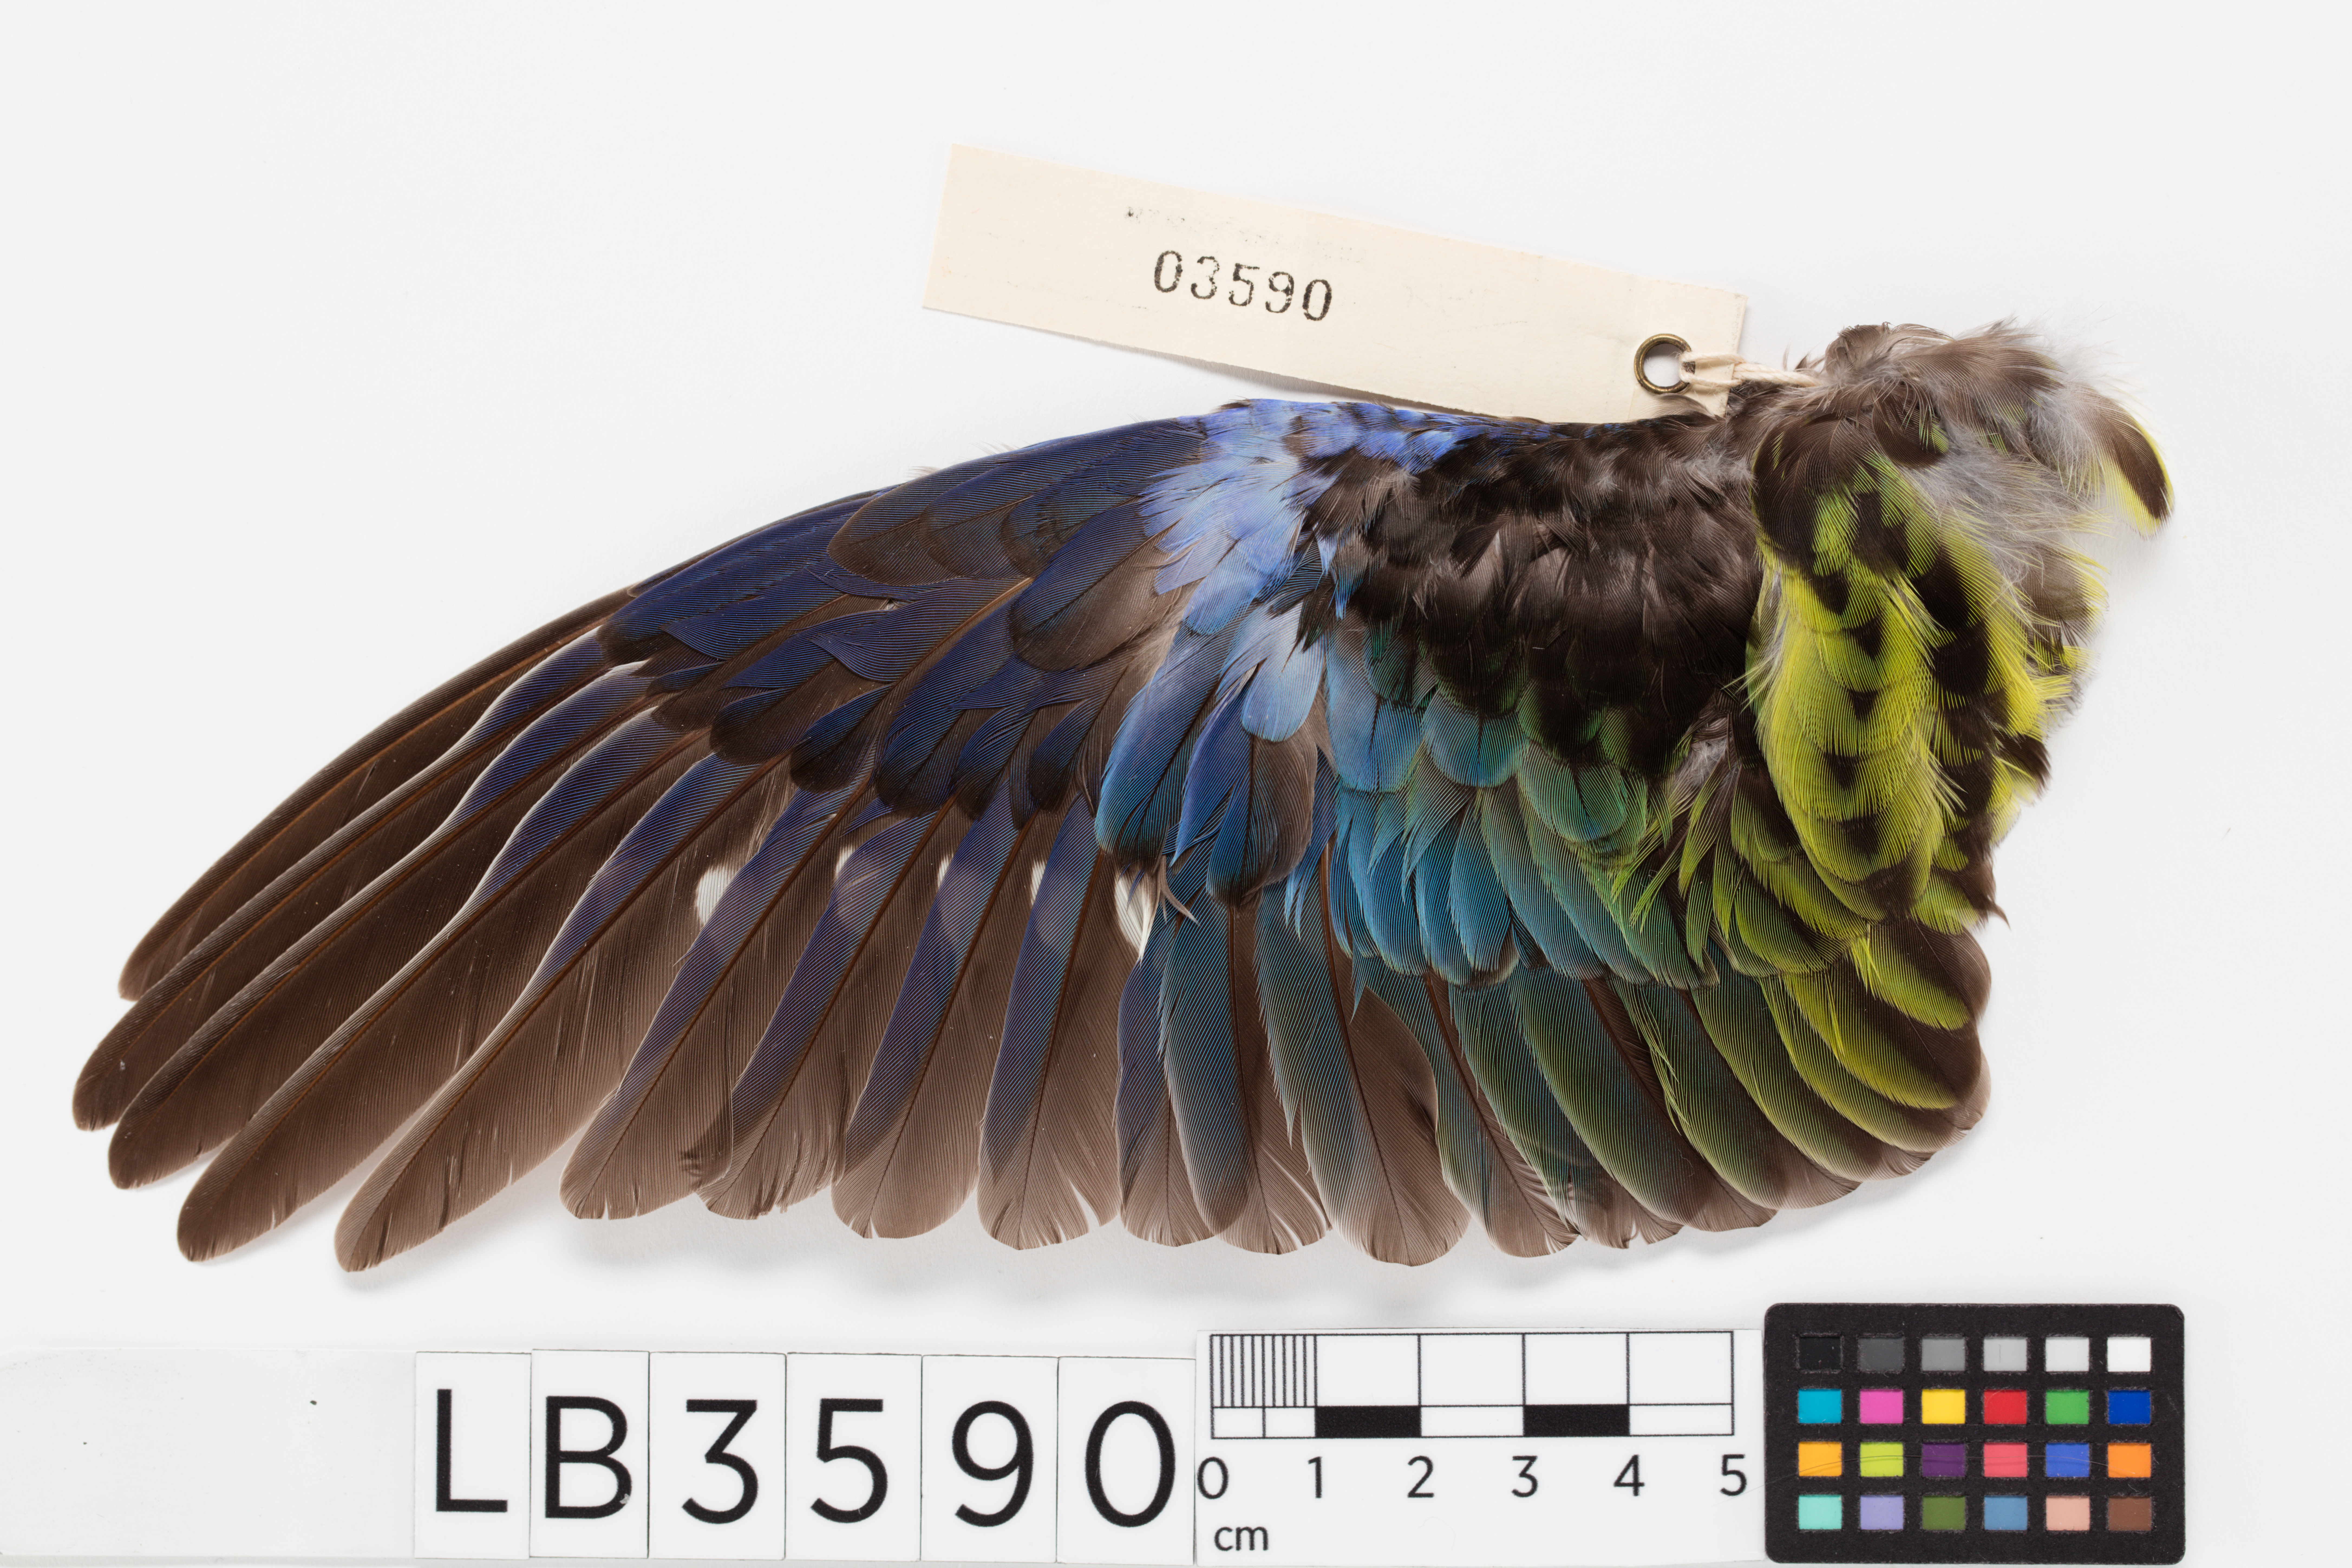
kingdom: Animalia
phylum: Chordata
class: Aves
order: Psittaciformes
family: Psittacidae
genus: Platycercus
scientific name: Platycercus eximius
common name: Eastern rosella
